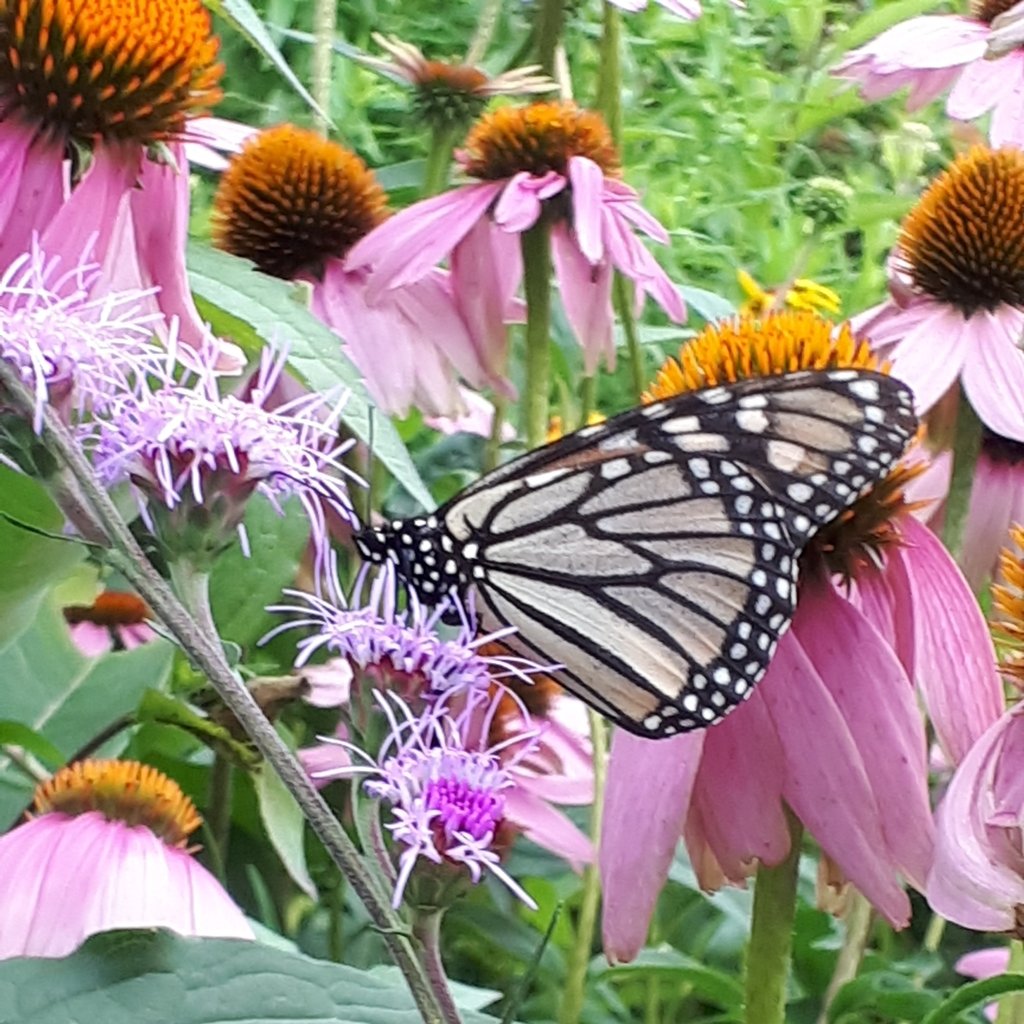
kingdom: Animalia
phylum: Arthropoda
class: Insecta
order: Lepidoptera
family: Nymphalidae
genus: Danaus
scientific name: Danaus plexippus
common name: Monarch
